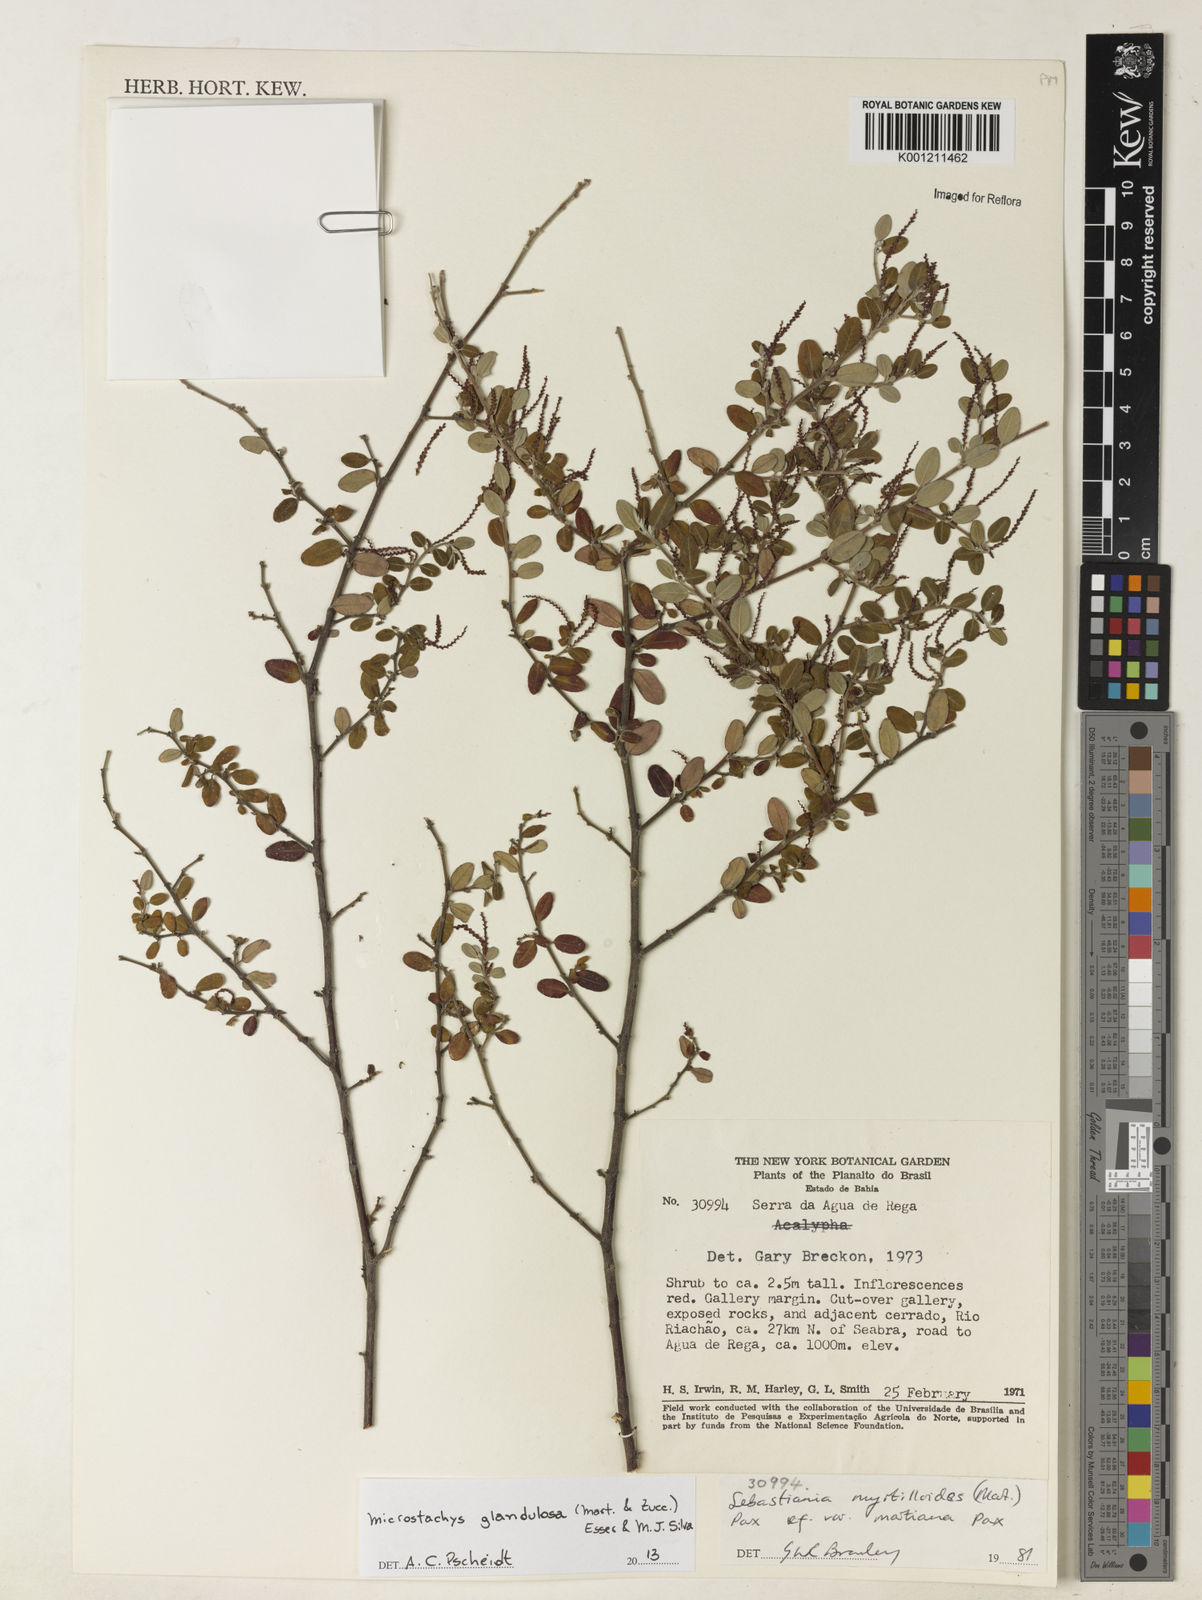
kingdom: Plantae
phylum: Tracheophyta
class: Magnoliopsida
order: Malpighiales
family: Euphorbiaceae
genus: Microstachys
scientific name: Microstachys glandulosa
